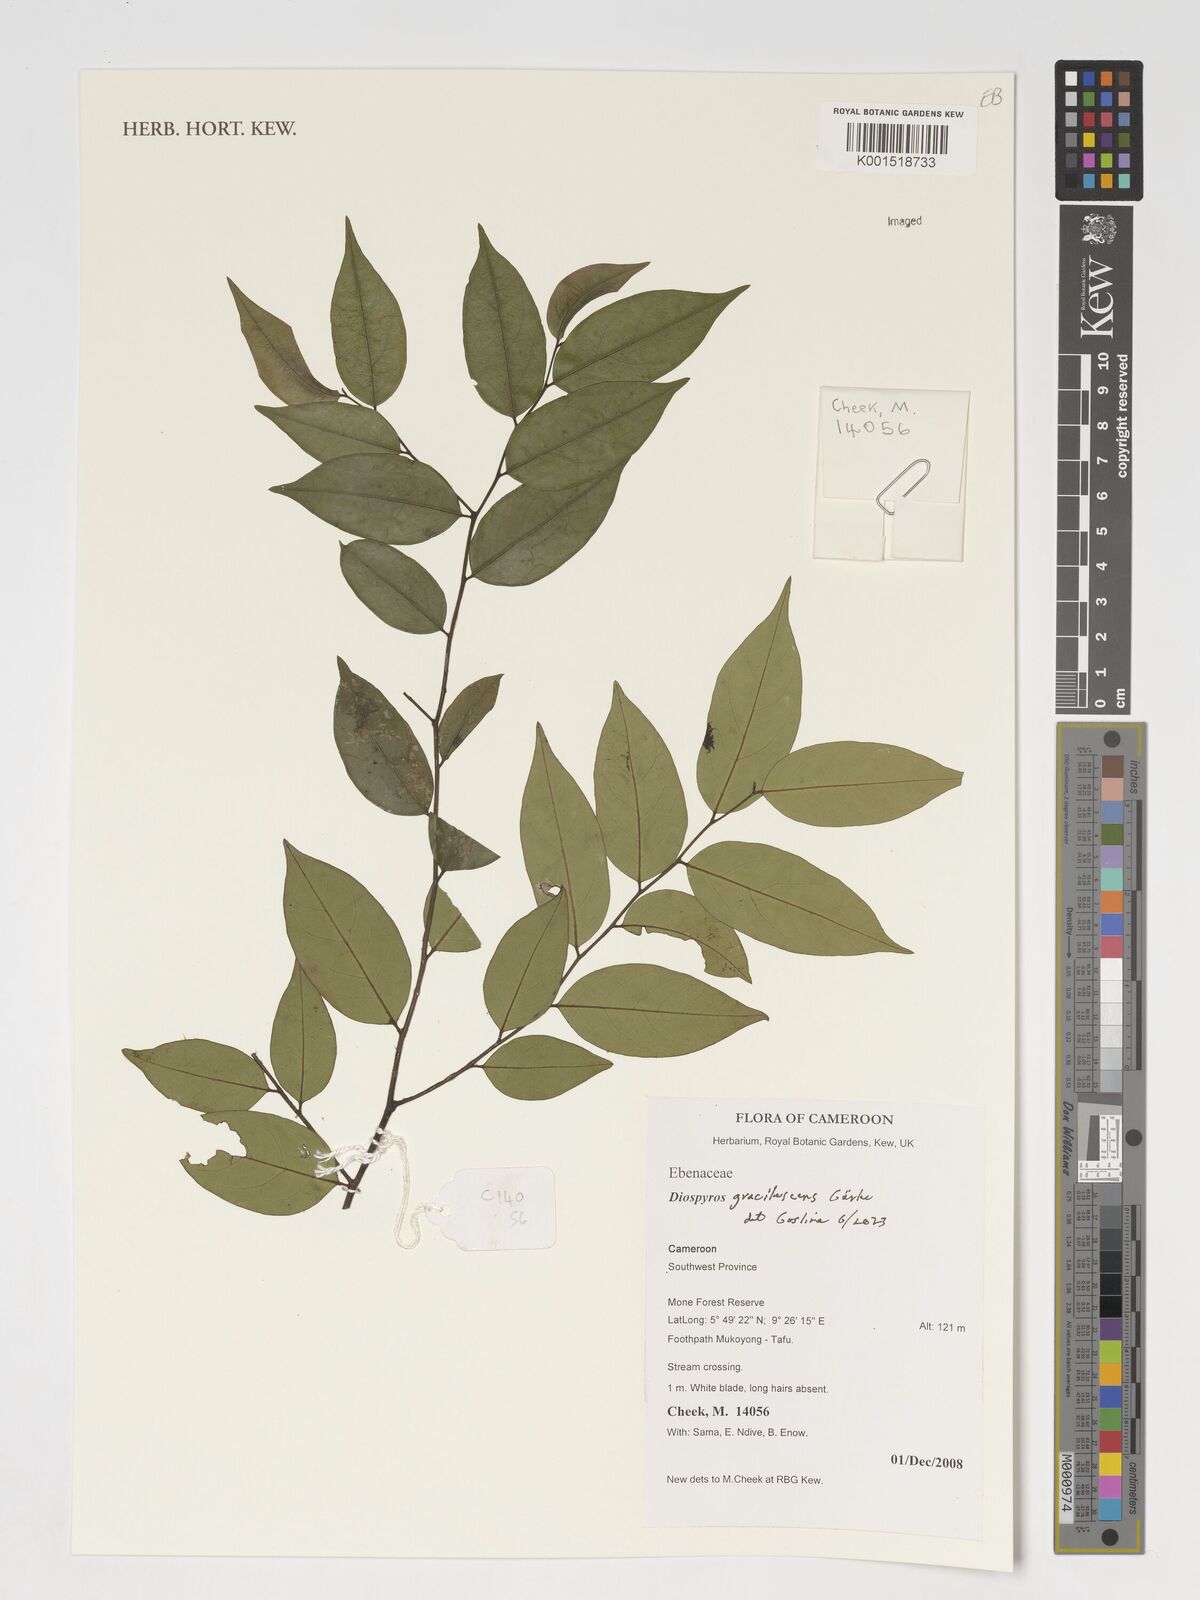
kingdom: Plantae
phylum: Tracheophyta
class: Magnoliopsida
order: Ericales
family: Ebenaceae
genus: Diospyros
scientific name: Diospyros gracilescens
